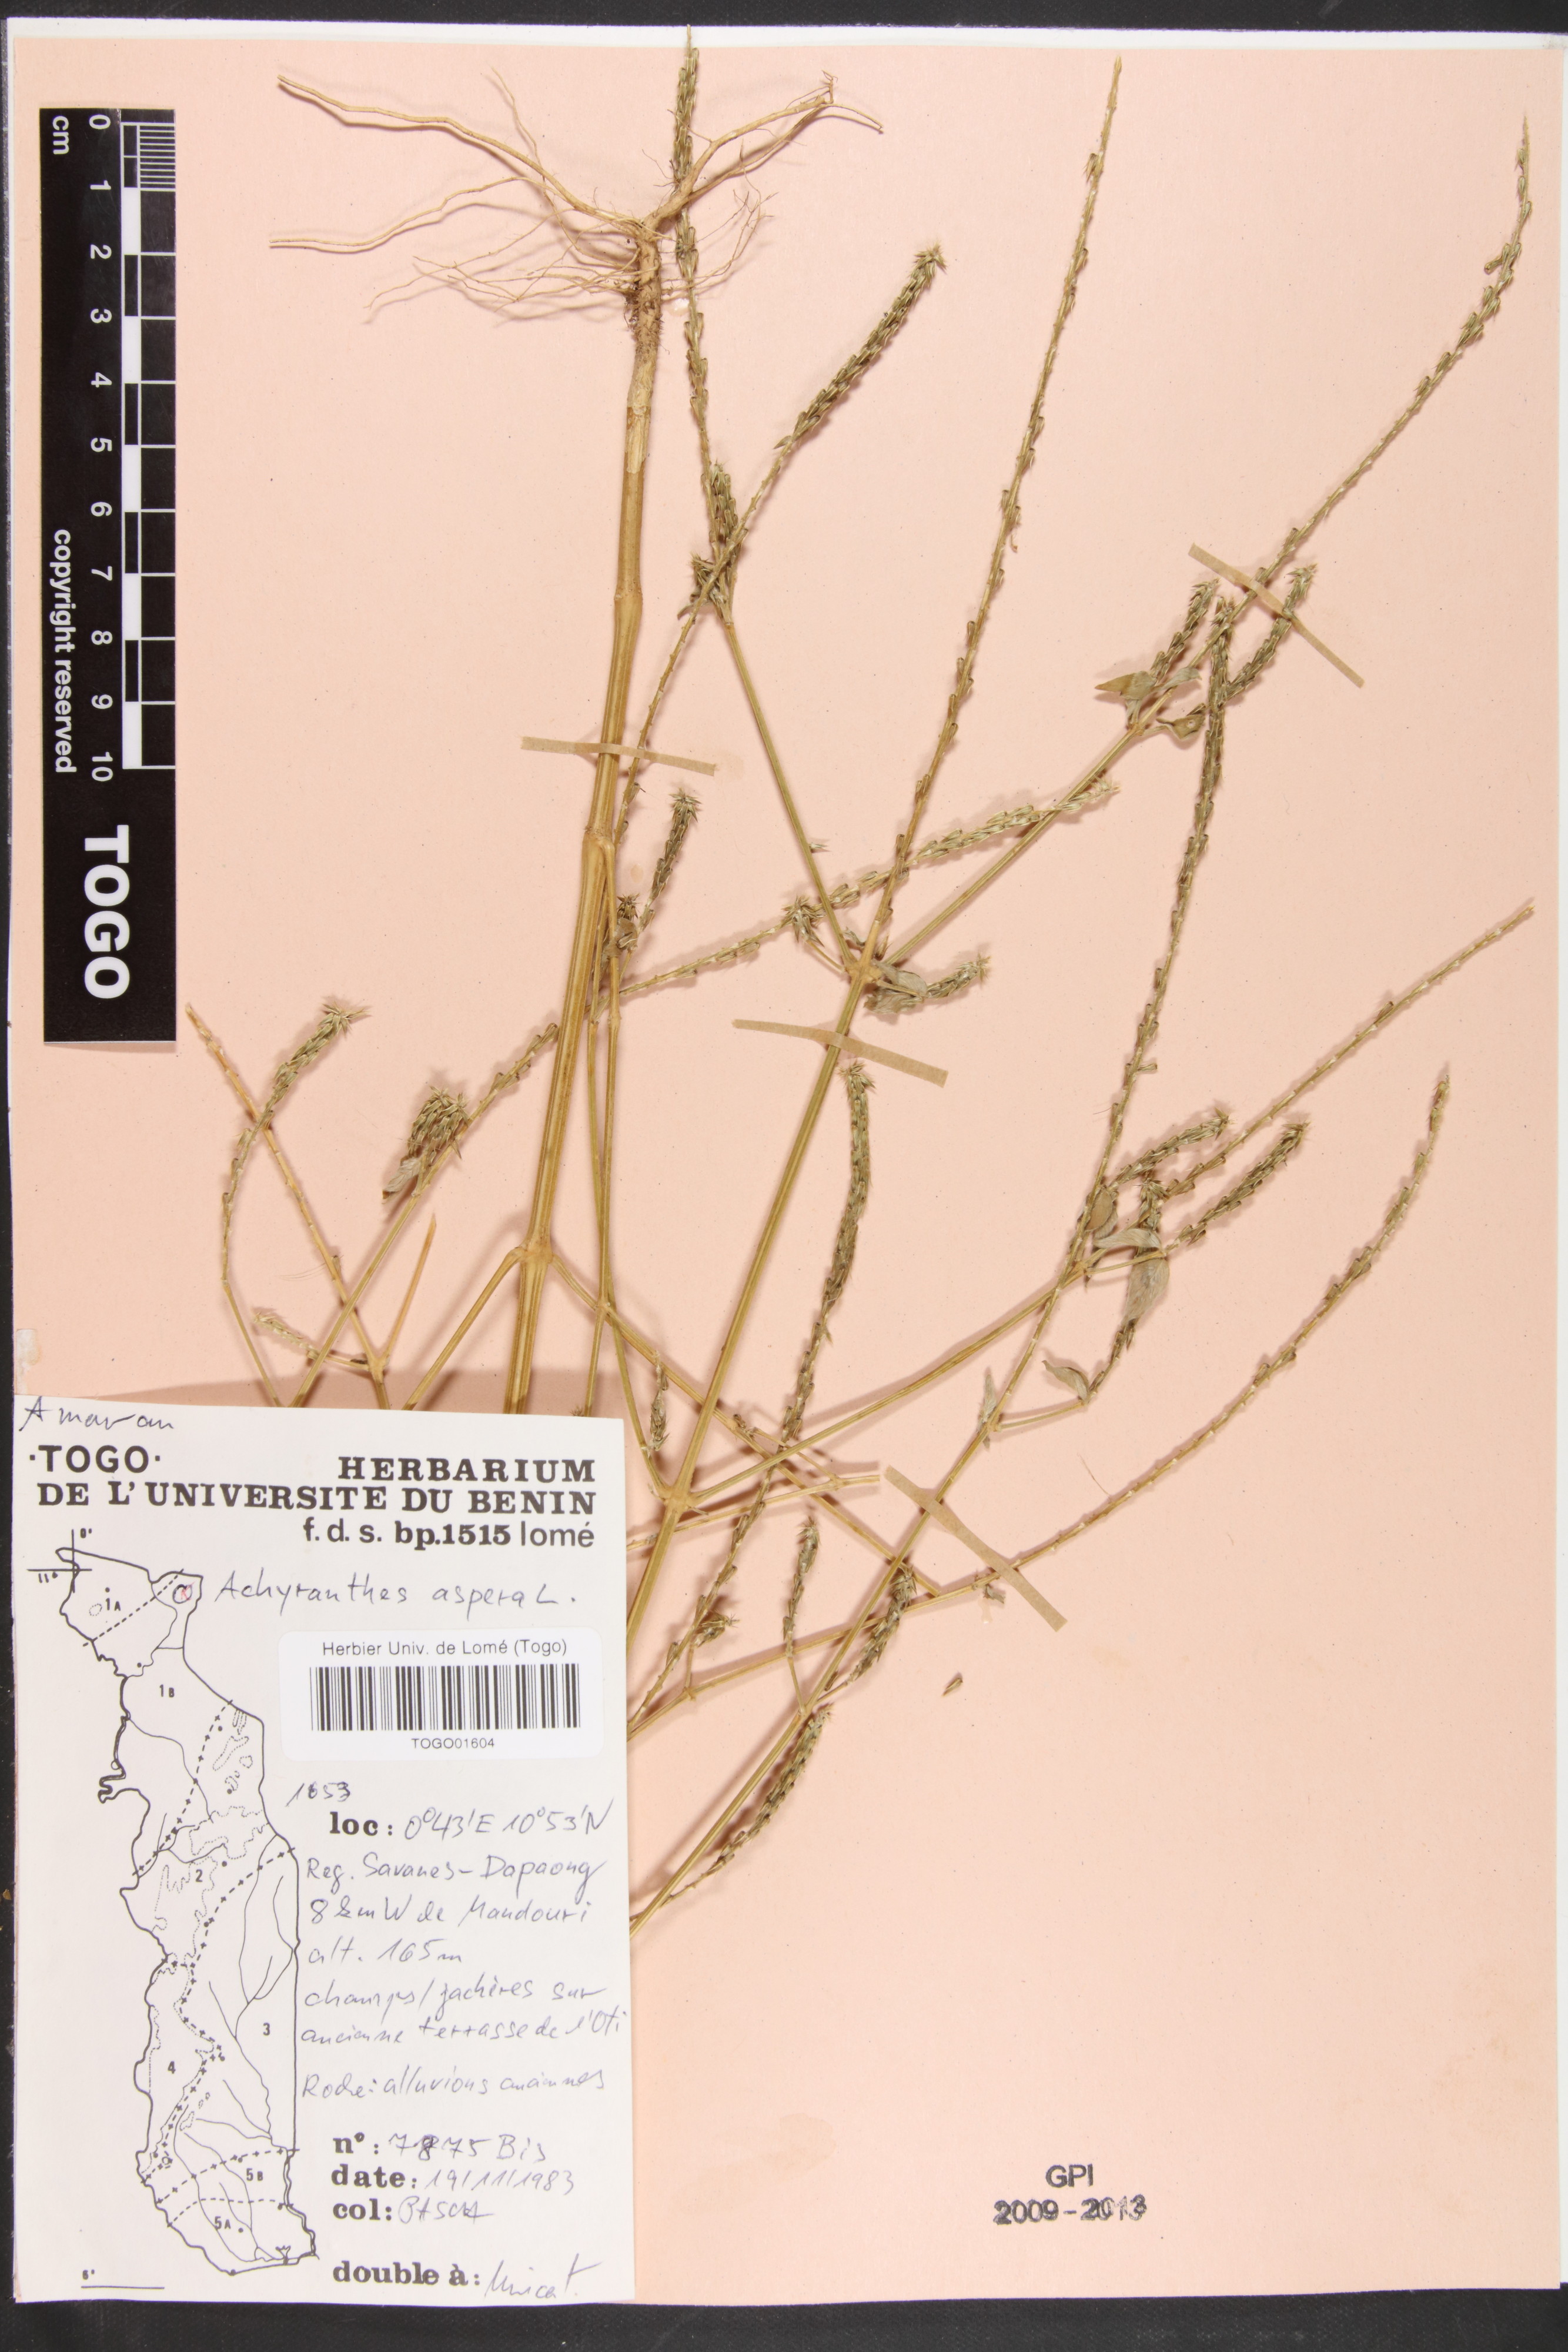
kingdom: Plantae
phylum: Tracheophyta
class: Magnoliopsida
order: Caryophyllales
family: Amaranthaceae
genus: Achyranthes
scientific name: Achyranthes aspera
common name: Devil's horsewhip
